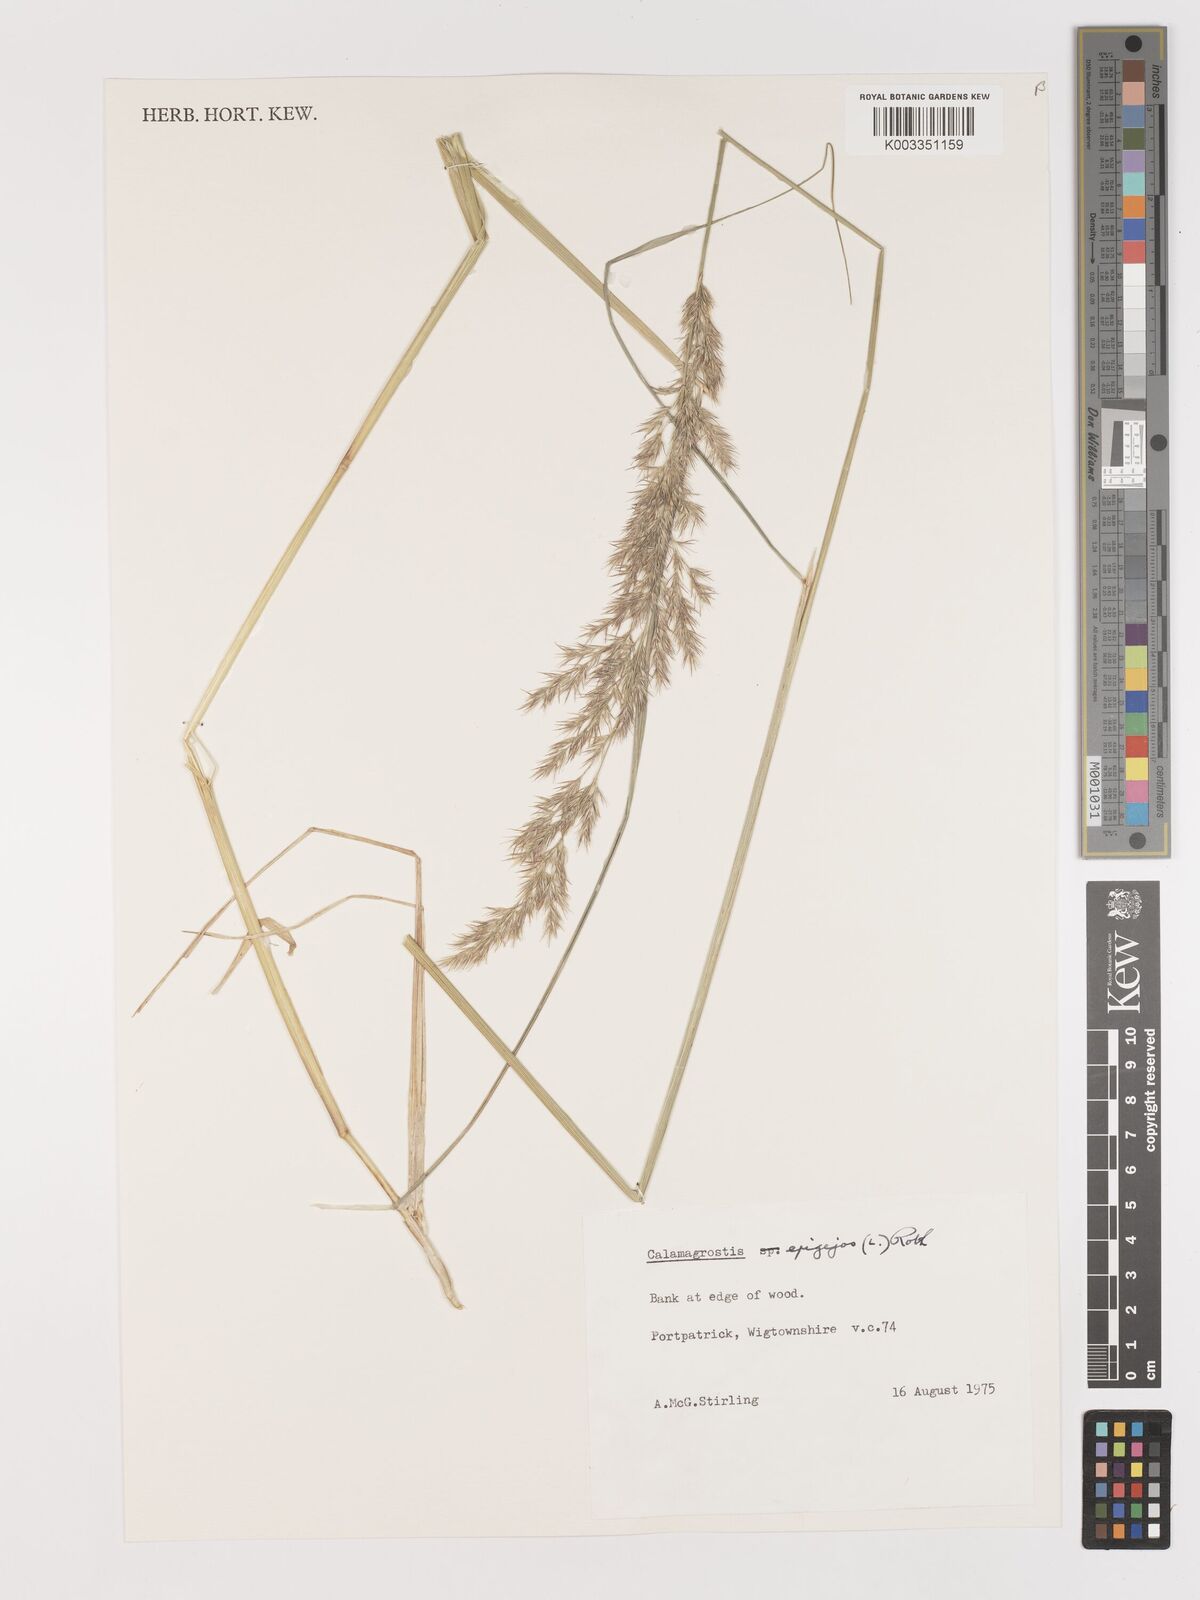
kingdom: Plantae
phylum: Tracheophyta
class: Liliopsida
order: Poales
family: Poaceae
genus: Calamagrostis
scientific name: Calamagrostis
